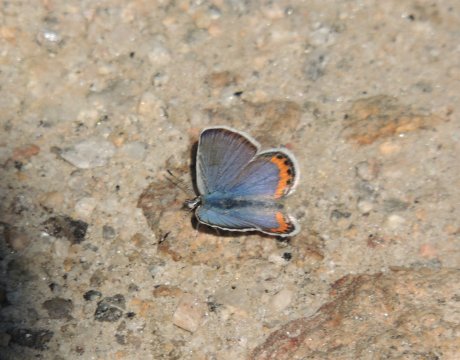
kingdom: Animalia
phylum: Arthropoda
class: Insecta
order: Lepidoptera
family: Lycaenidae
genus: Plebejus
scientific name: Plebejus lupini
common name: Lupine Blue
